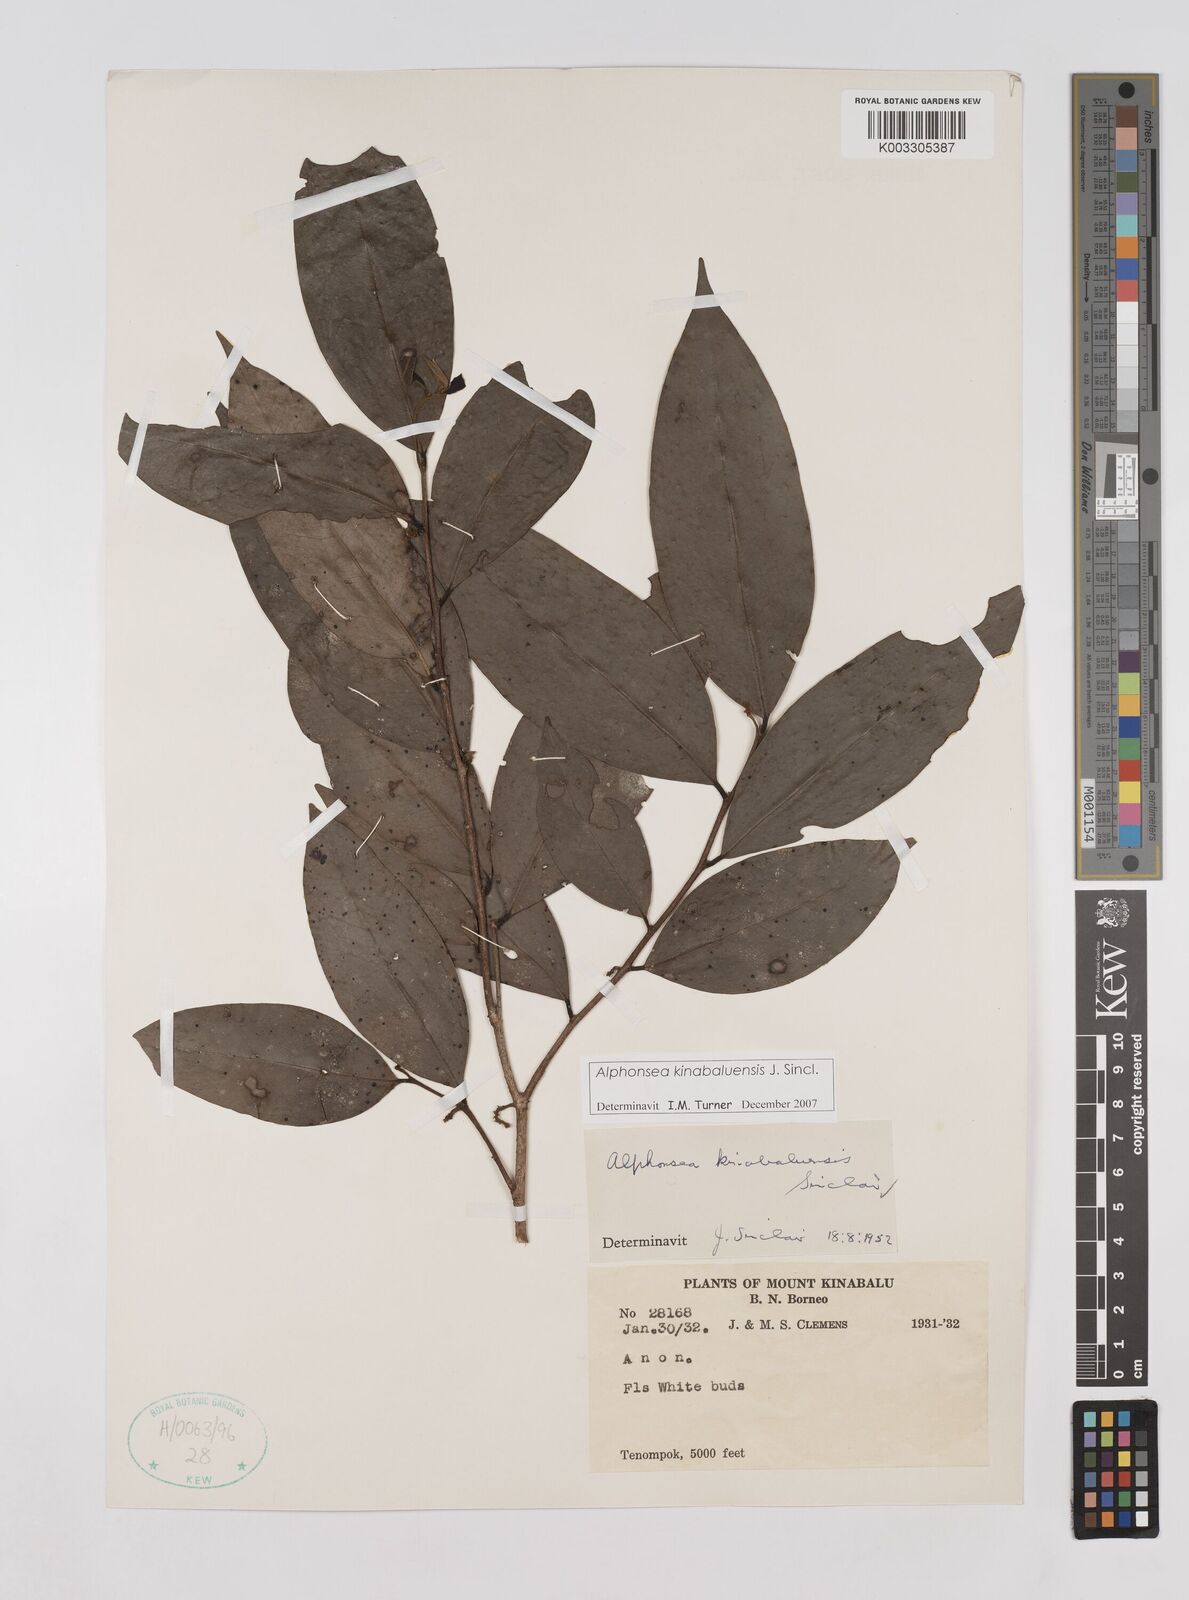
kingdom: Plantae
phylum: Tracheophyta
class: Magnoliopsida
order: Magnoliales
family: Annonaceae
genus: Alphonsea
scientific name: Alphonsea kinabaluensis
